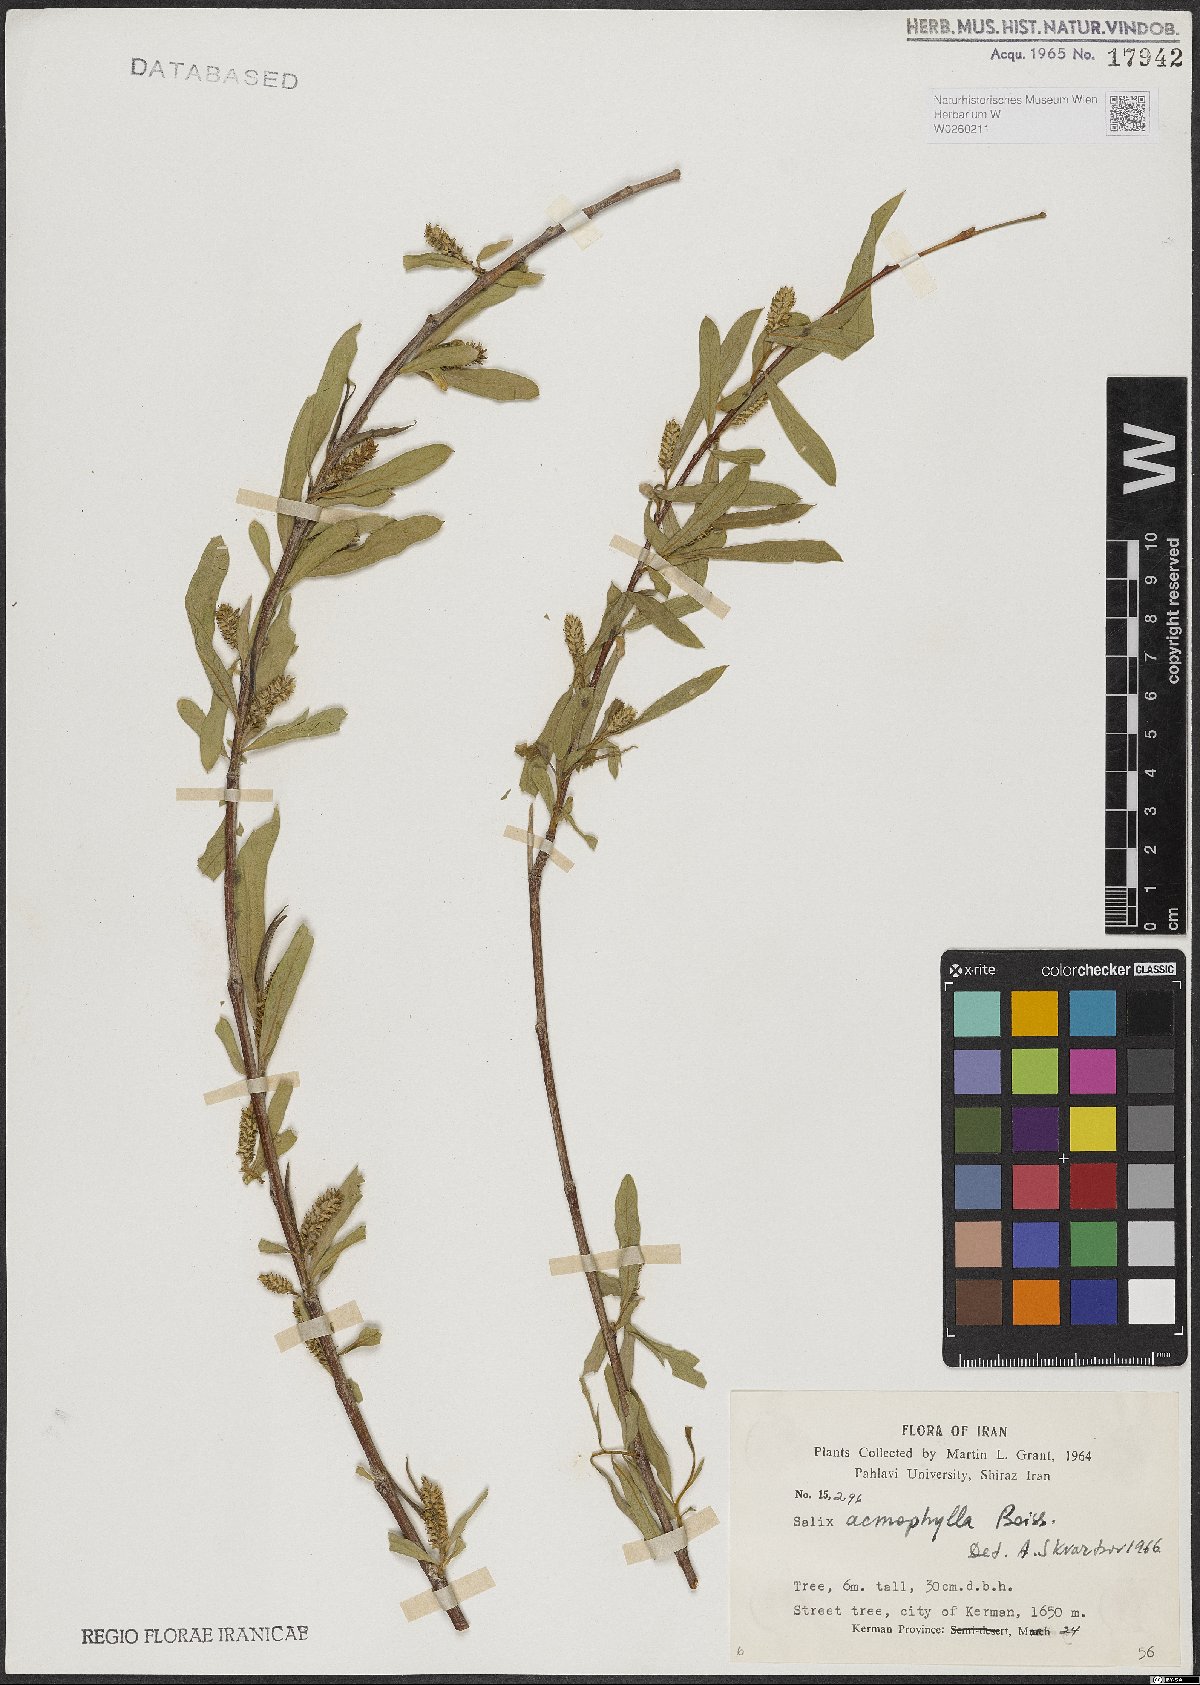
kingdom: Plantae
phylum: Tracheophyta
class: Magnoliopsida
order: Malpighiales
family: Salicaceae
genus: Salix
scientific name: Salix acmophylla
